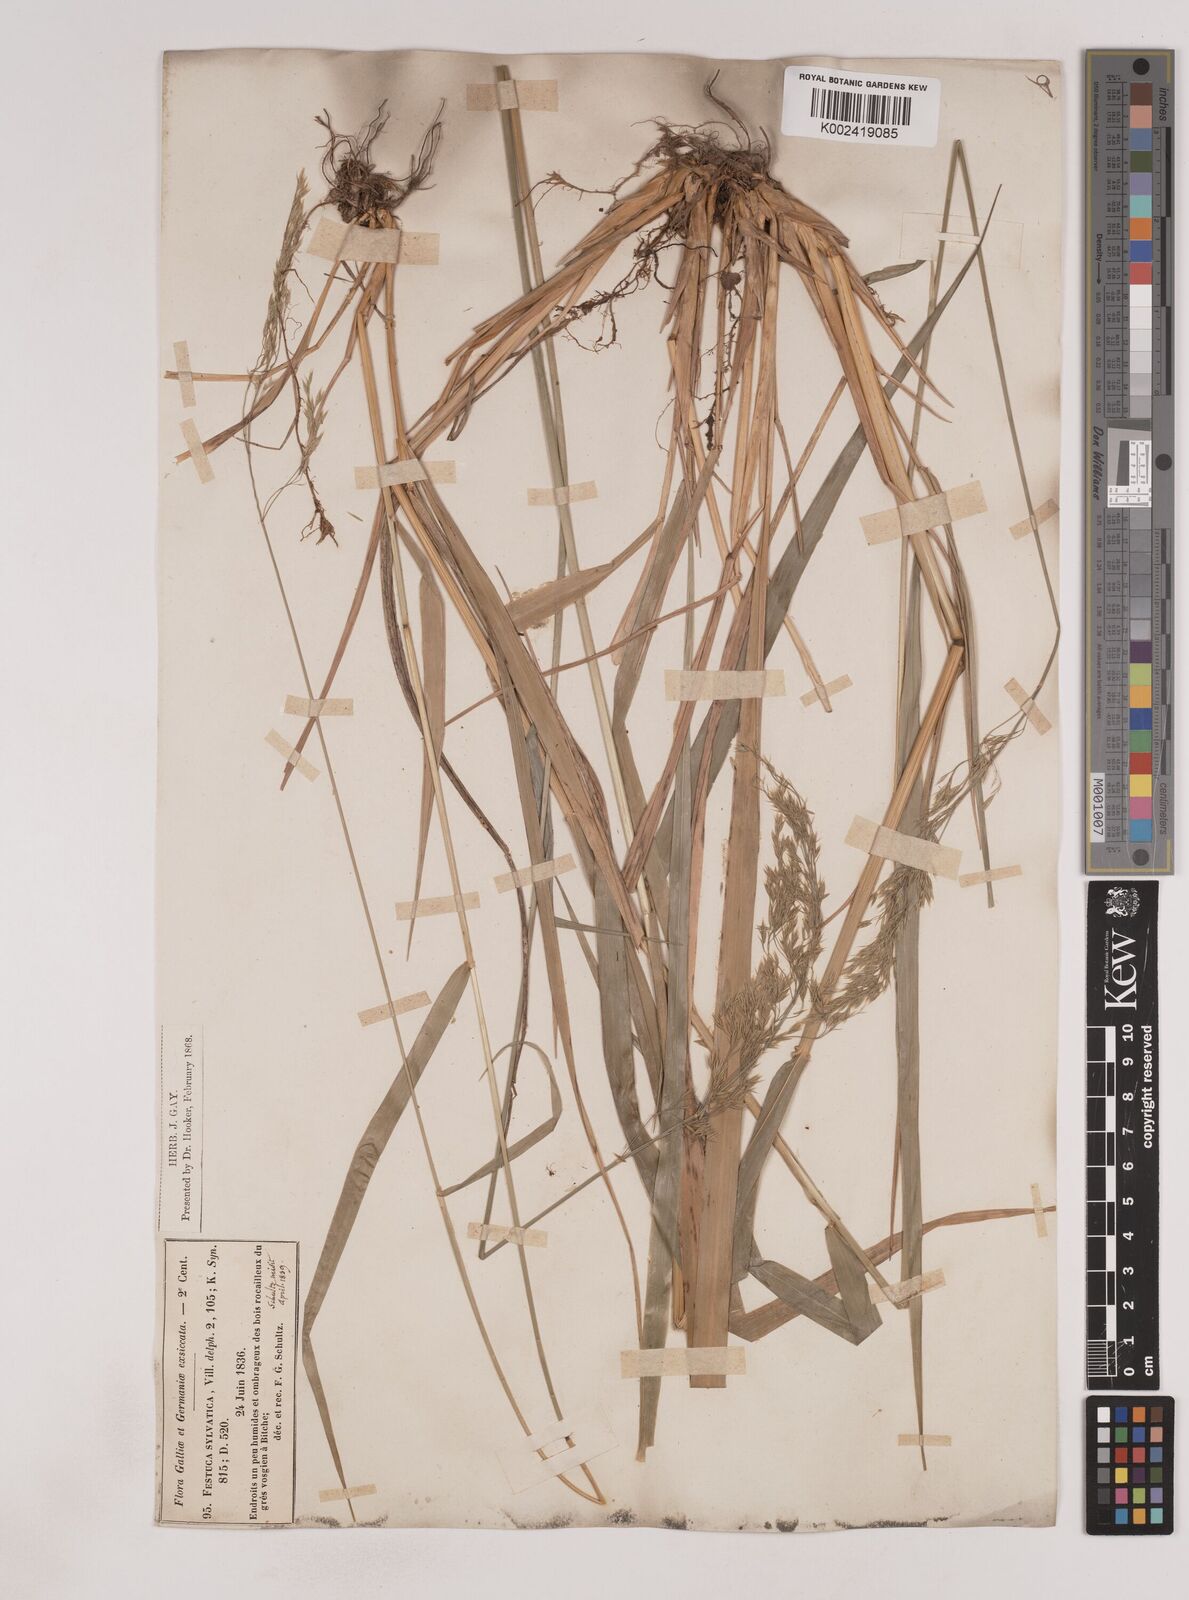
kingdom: Plantae
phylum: Tracheophyta
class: Liliopsida
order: Poales
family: Poaceae
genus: Festuca
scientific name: Festuca drymeja
